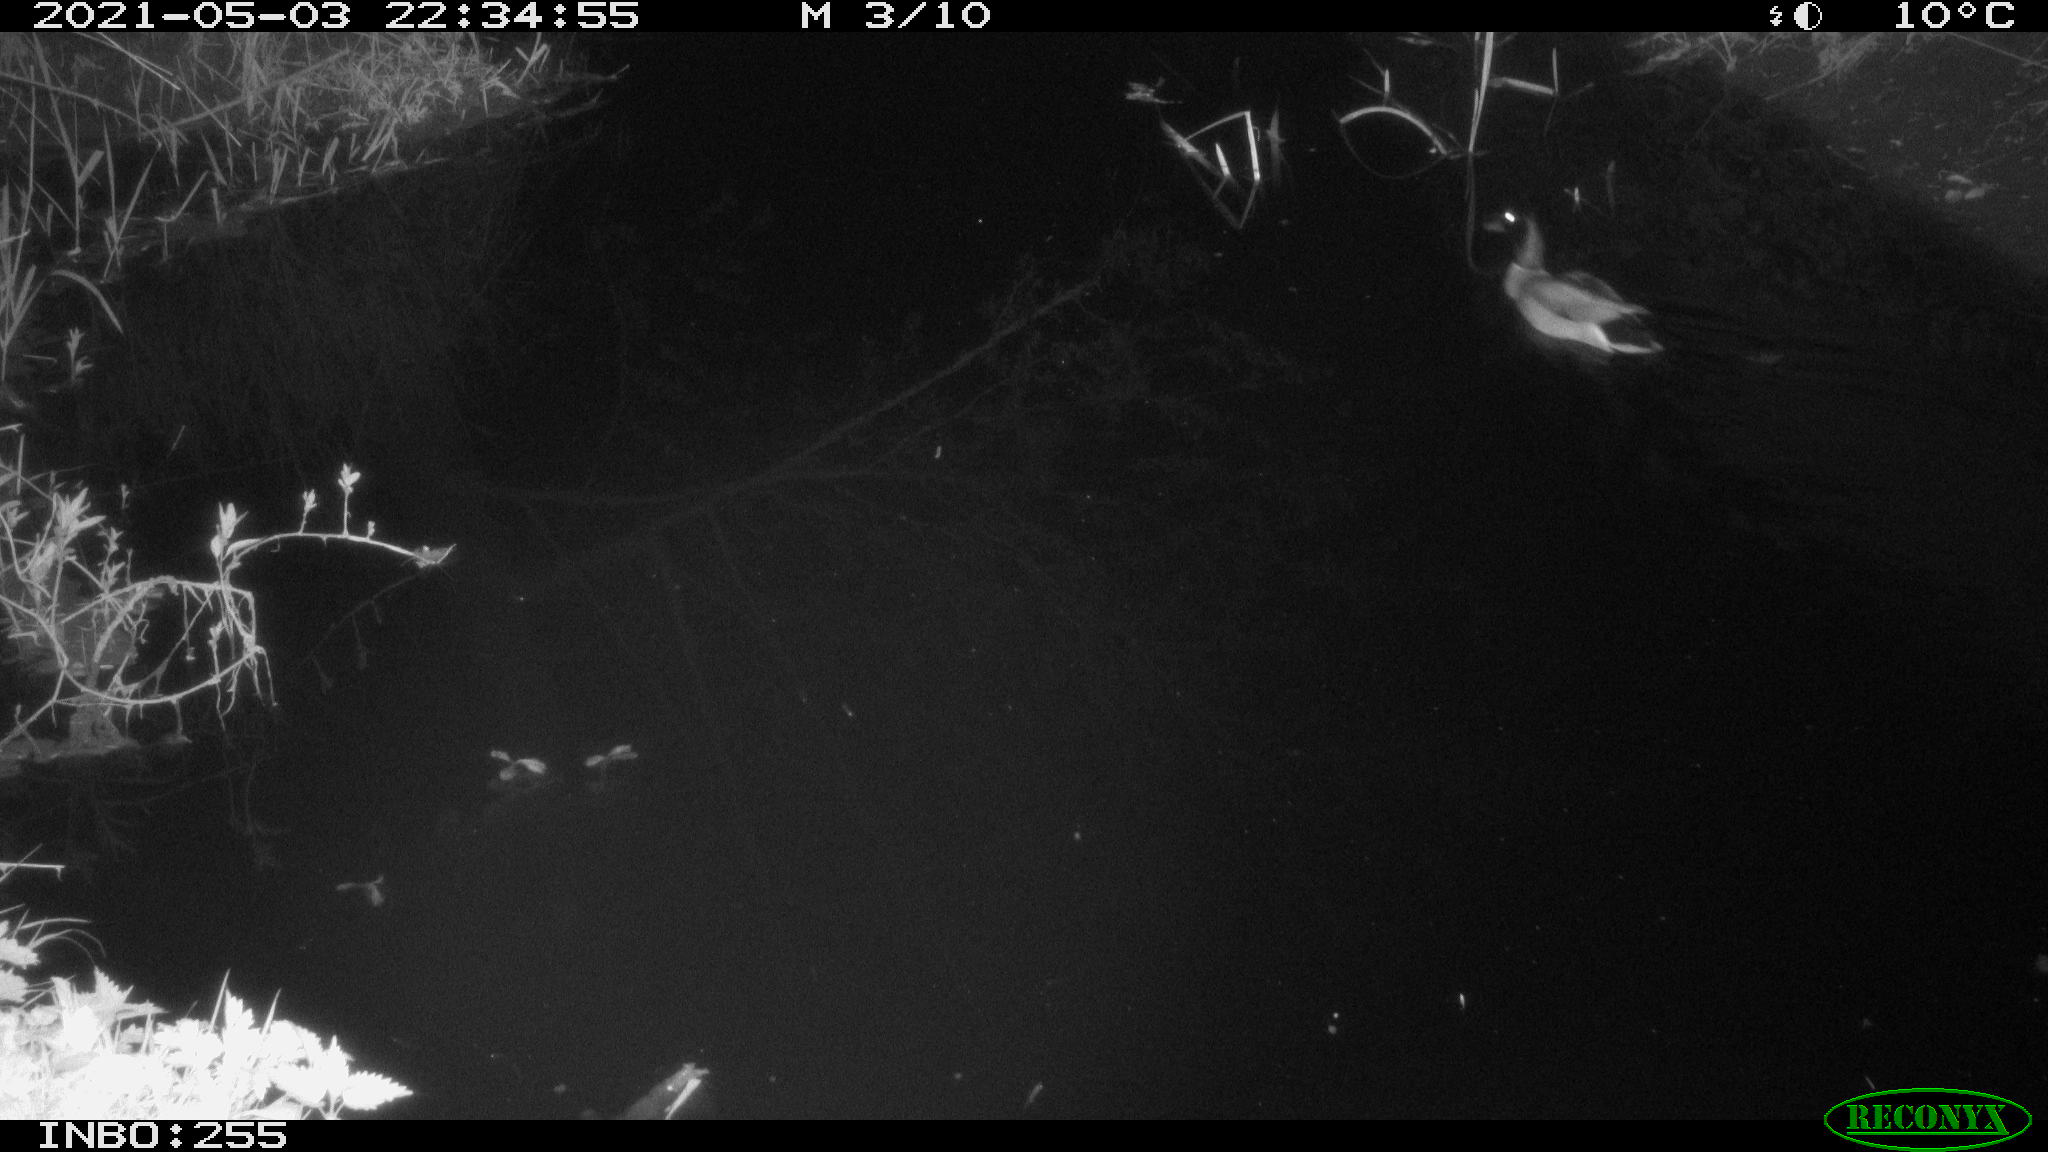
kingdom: Animalia
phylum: Chordata
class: Aves
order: Anseriformes
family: Anatidae
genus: Anas
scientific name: Anas platyrhynchos
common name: Mallard
